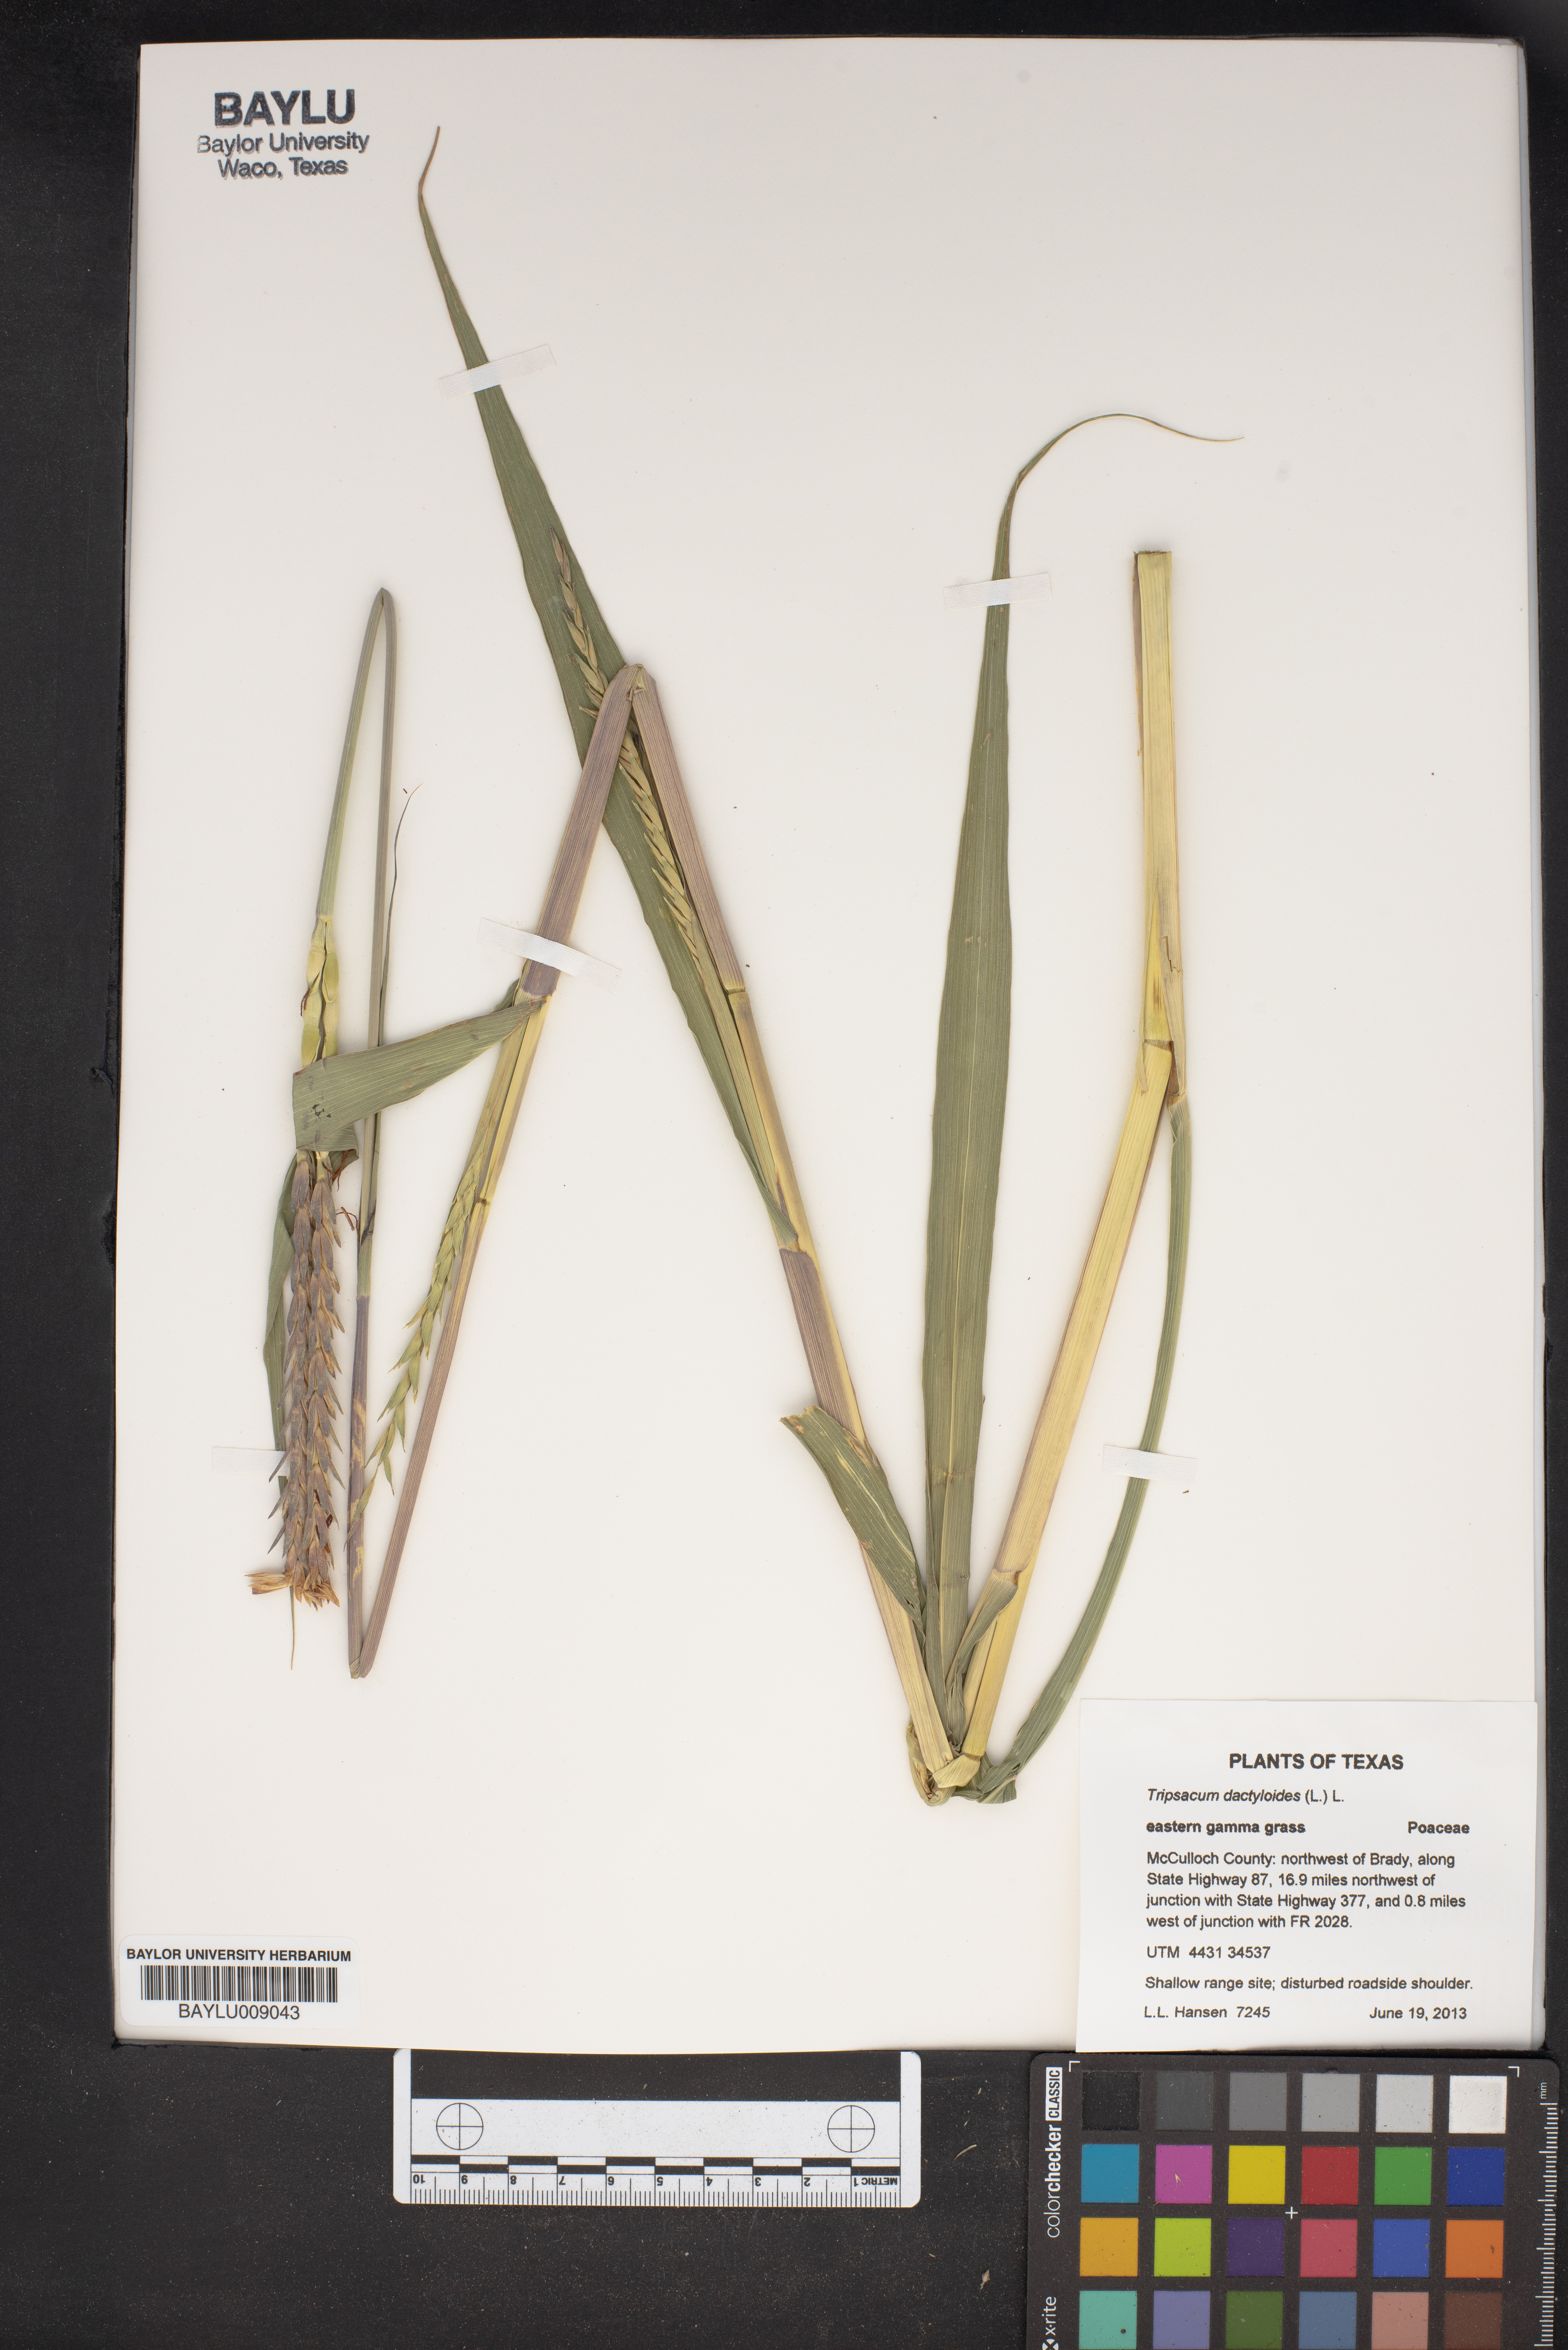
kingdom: Plantae
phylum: Tracheophyta
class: Liliopsida
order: Poales
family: Poaceae
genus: Tripsacum
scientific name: Tripsacum dactyloides
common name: Buffalo-grass
